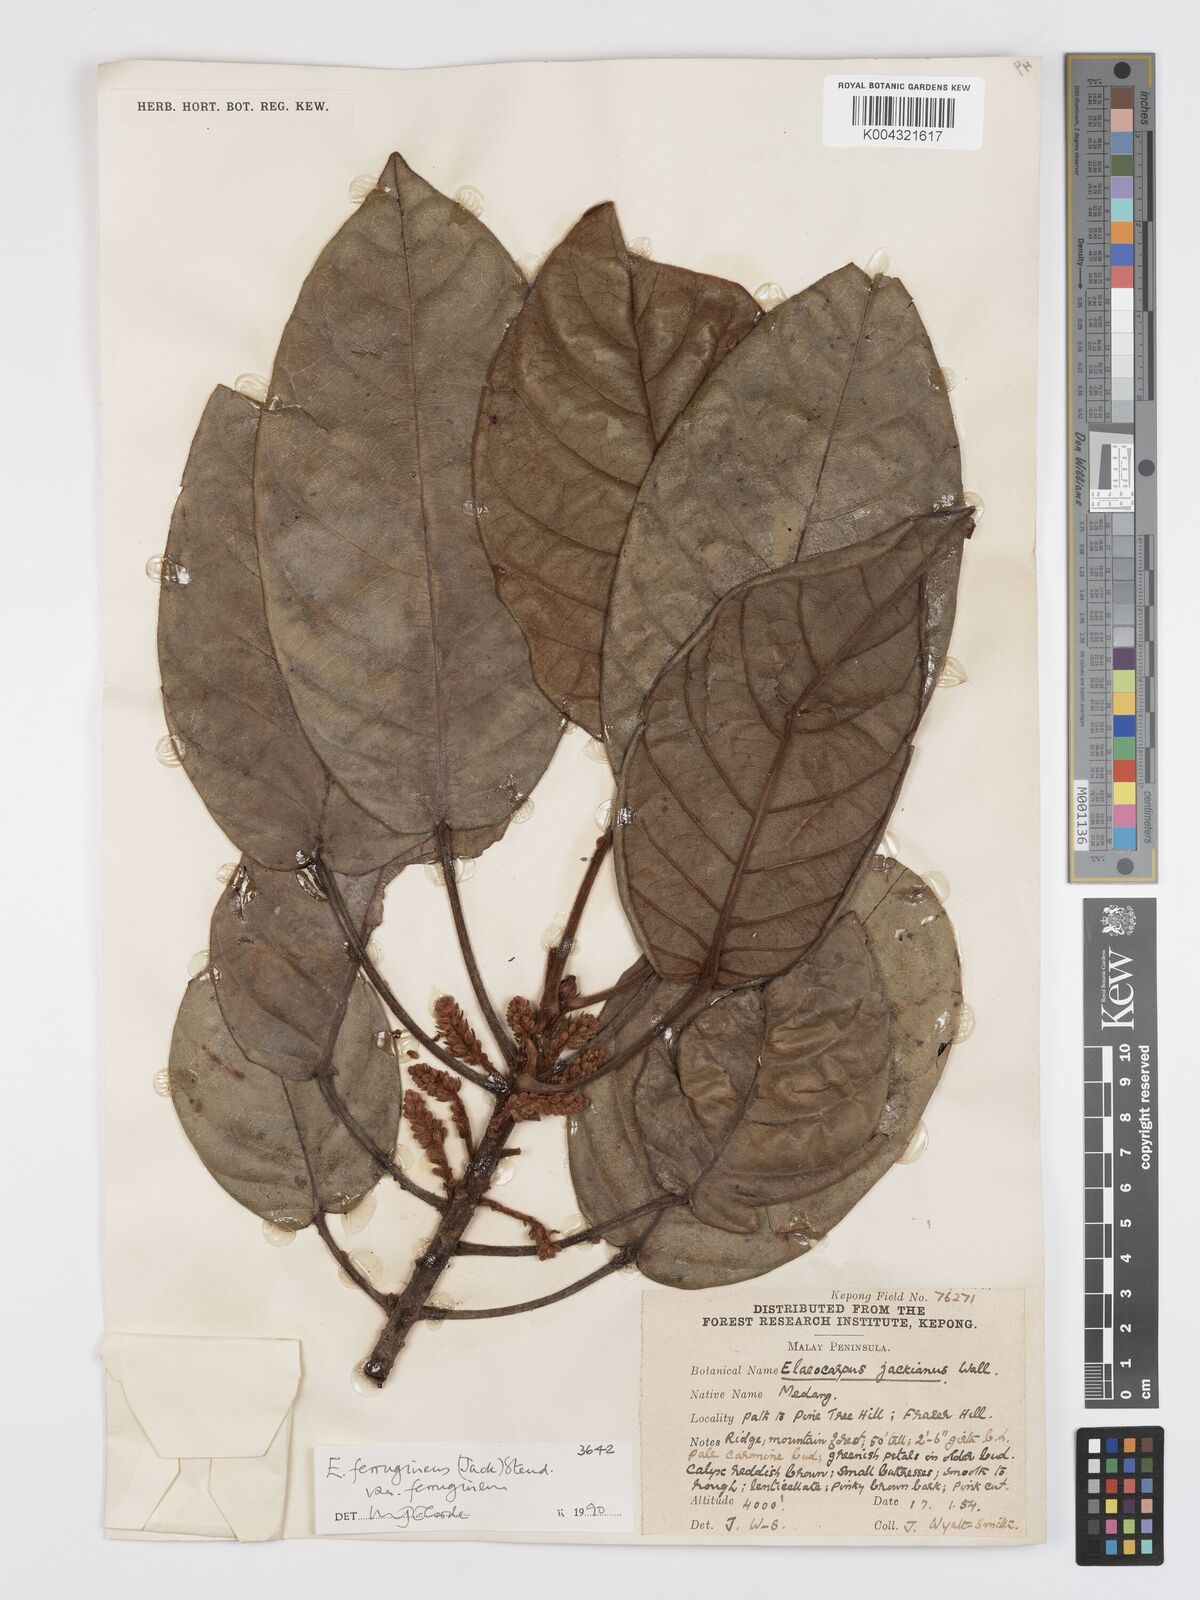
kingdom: Plantae
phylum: Tracheophyta
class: Magnoliopsida
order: Oxalidales
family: Elaeocarpaceae
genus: Elaeocarpus
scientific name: Elaeocarpus ferrugineus
